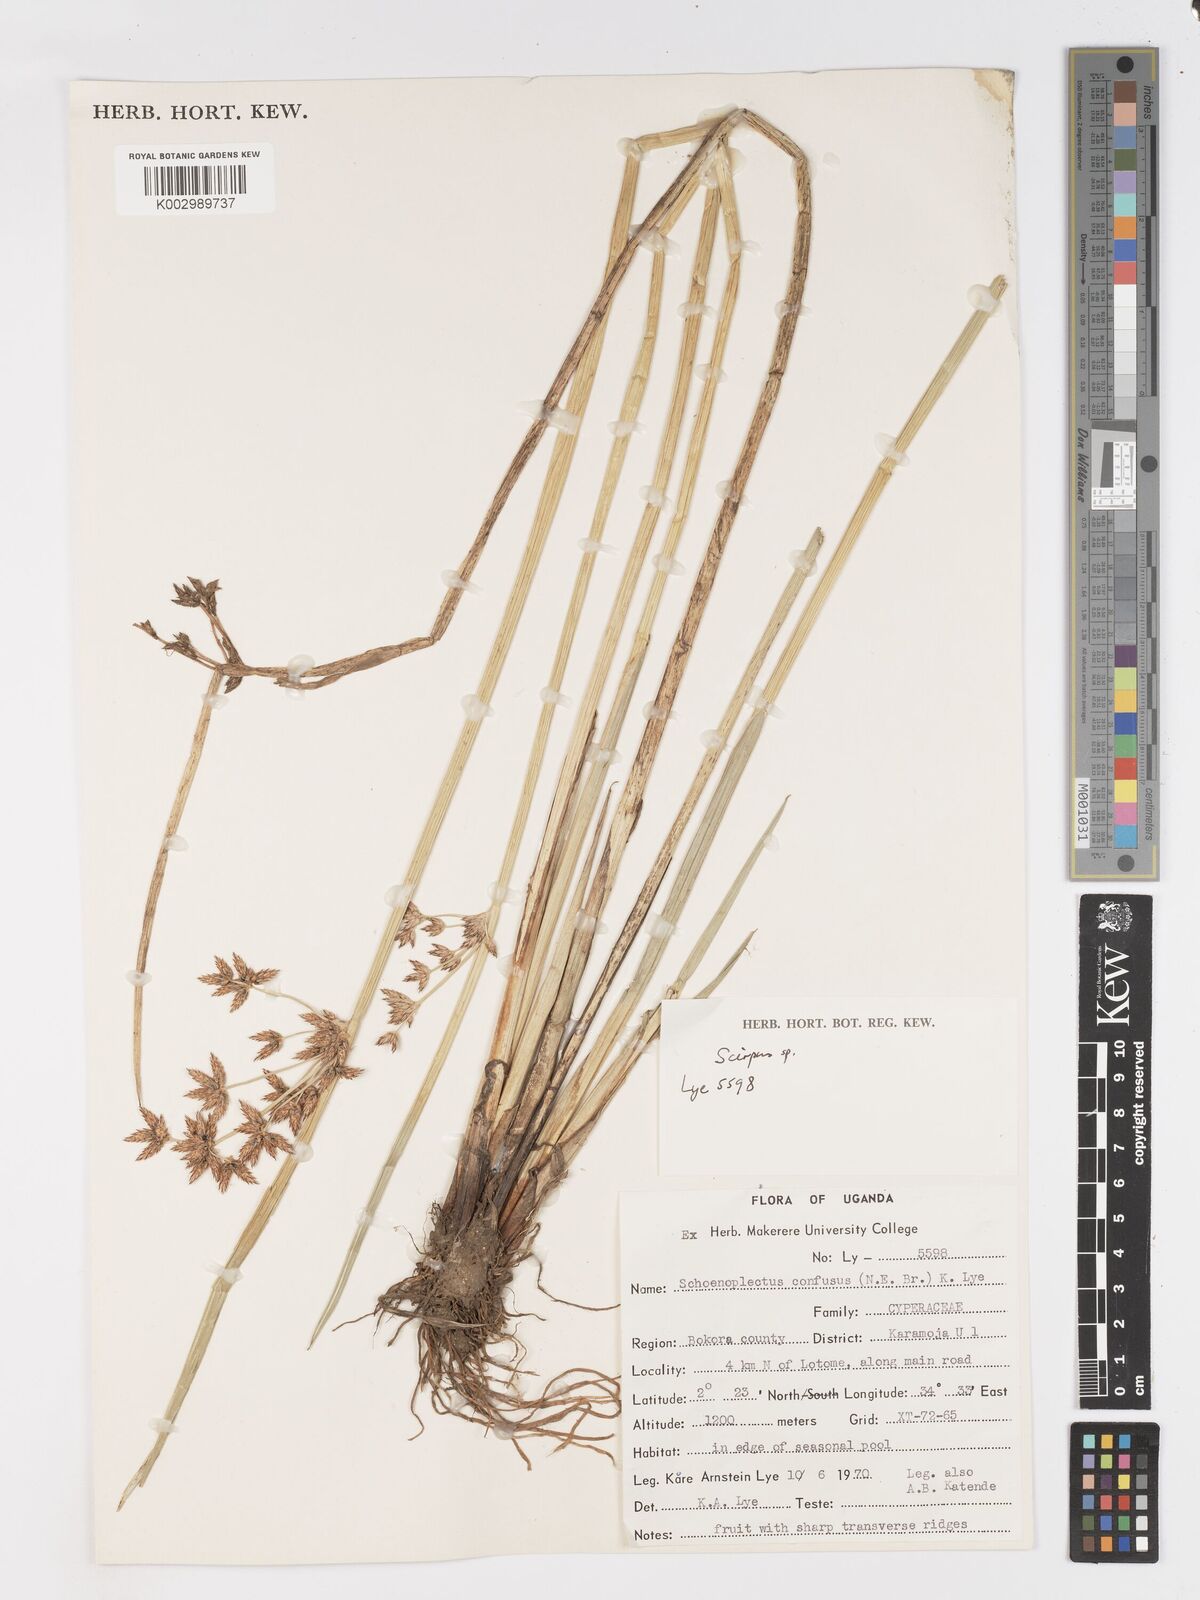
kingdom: Plantae
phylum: Tracheophyta
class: Liliopsida
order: Poales
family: Cyperaceae
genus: Schoenoplectiella
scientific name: Schoenoplectiella confusa
